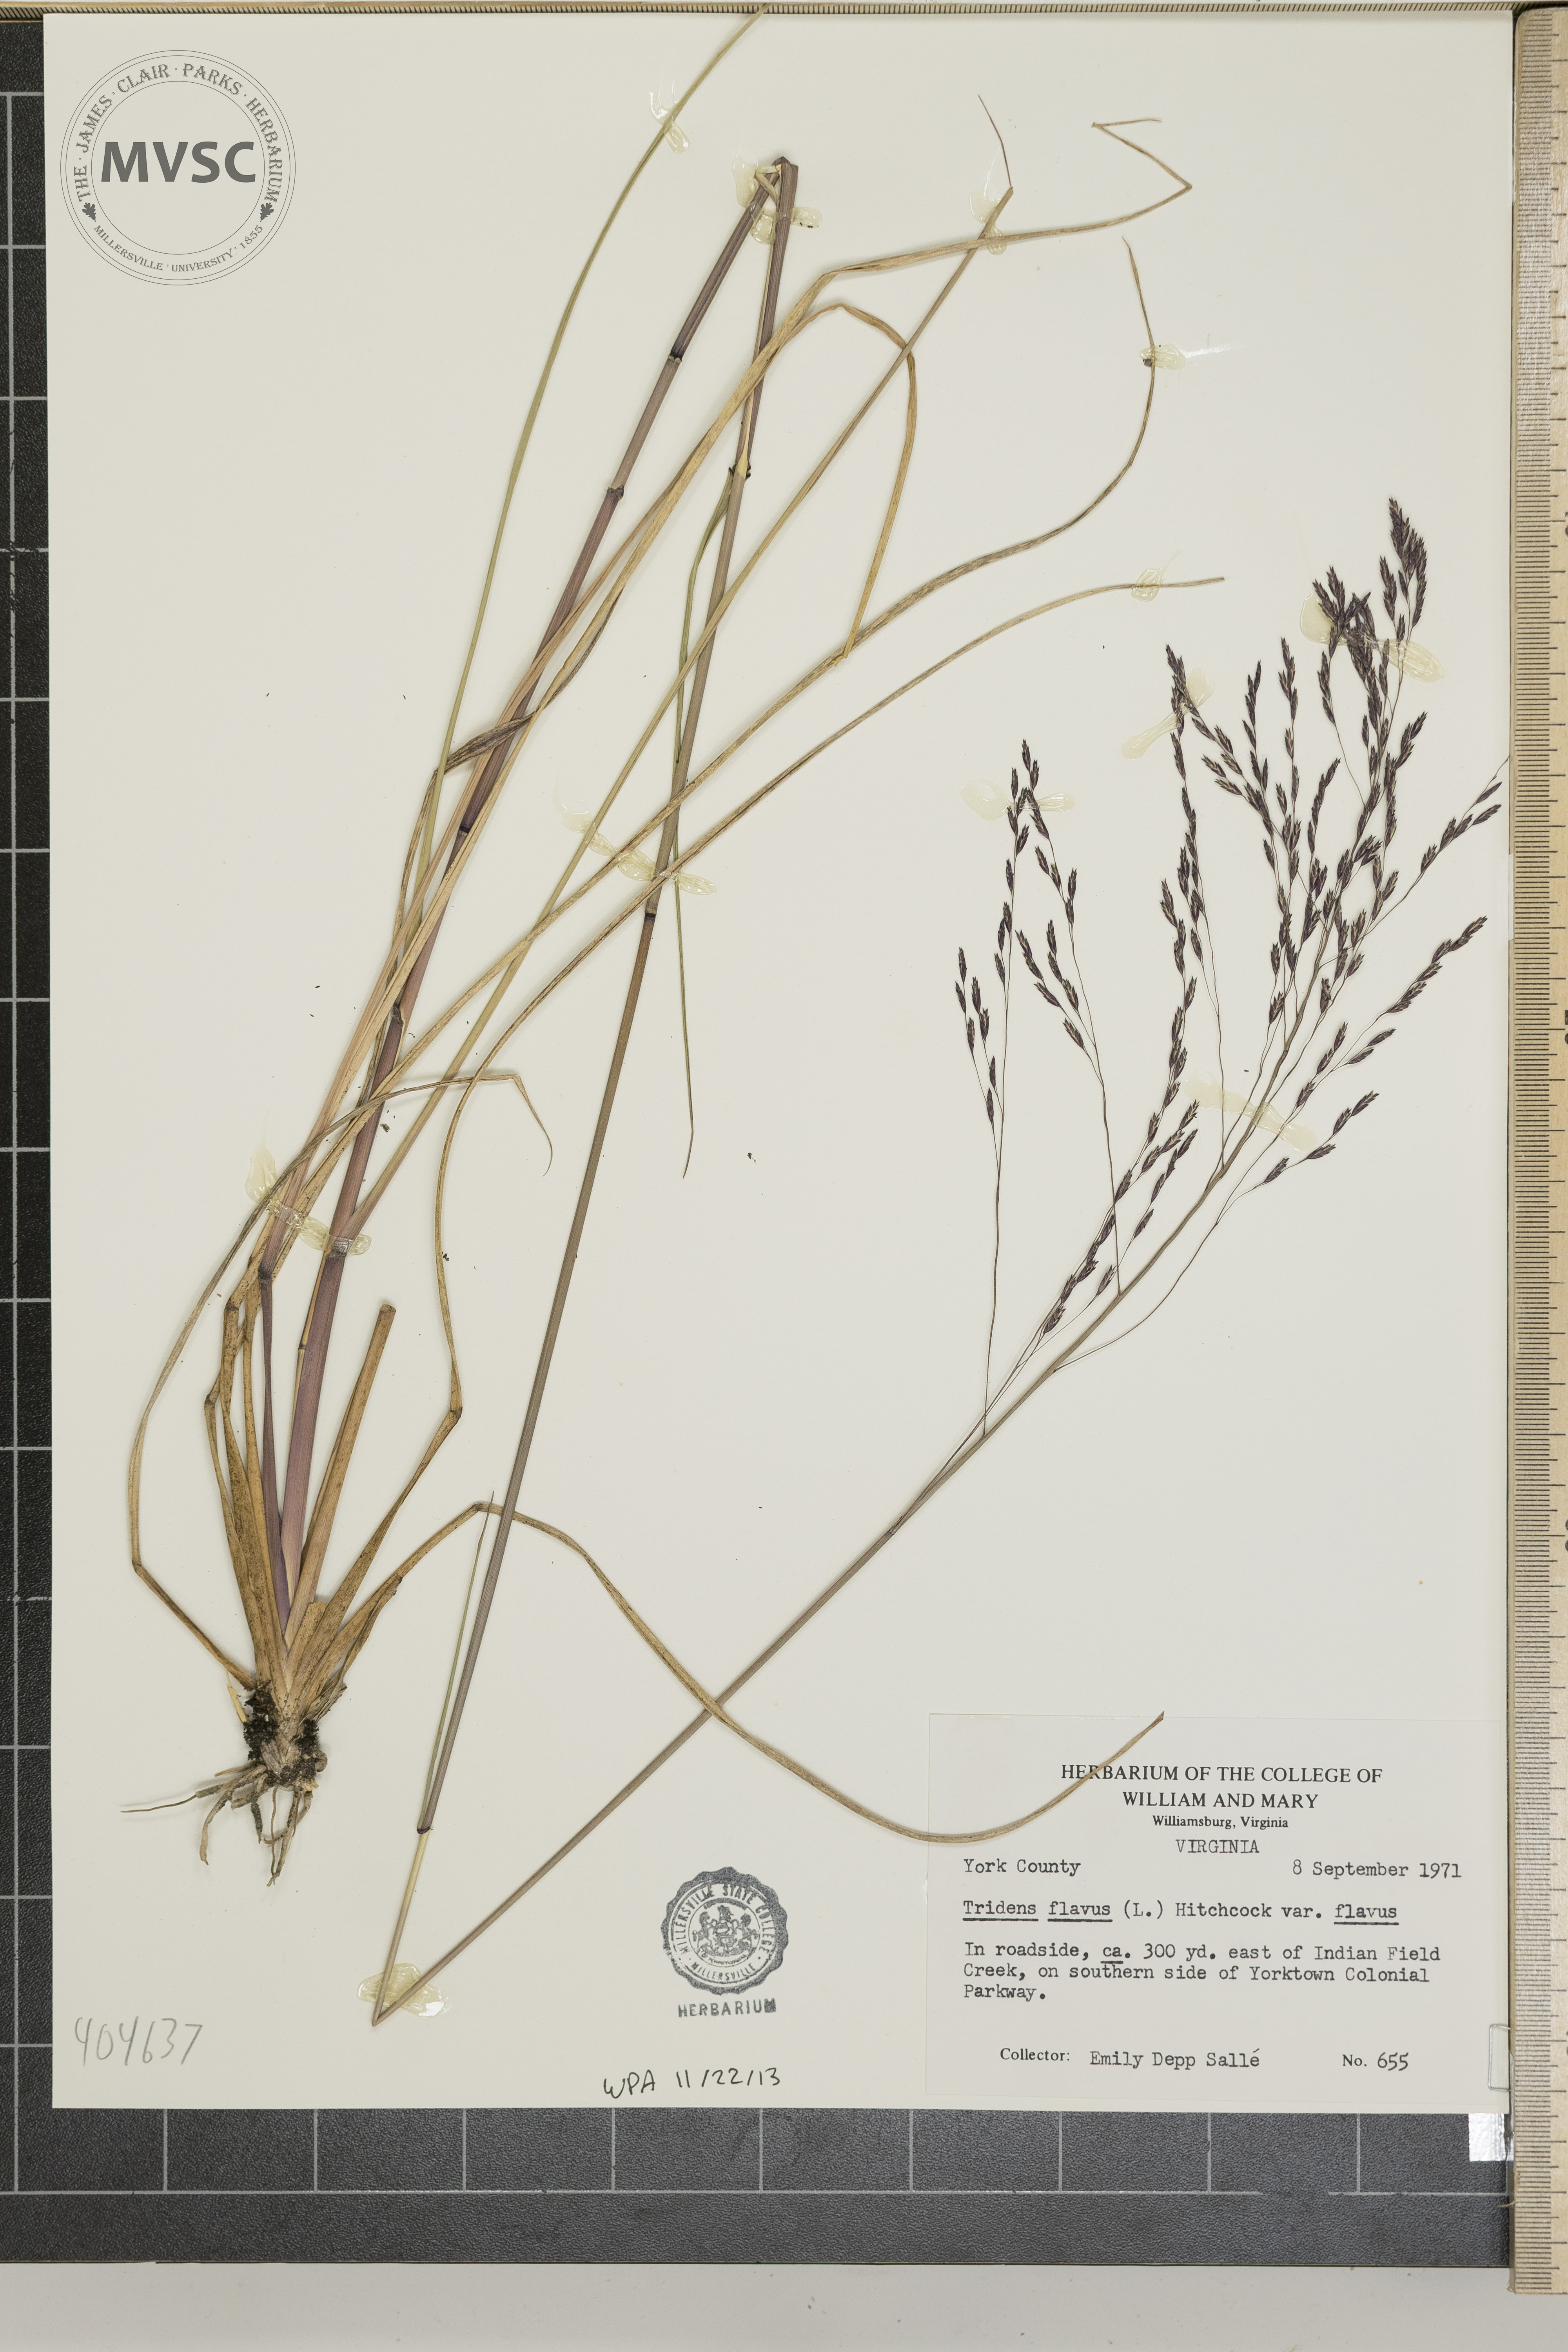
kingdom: Plantae
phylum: Tracheophyta
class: Liliopsida
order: Poales
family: Poaceae
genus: Tridens
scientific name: Tridens flavus
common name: Purpletop
